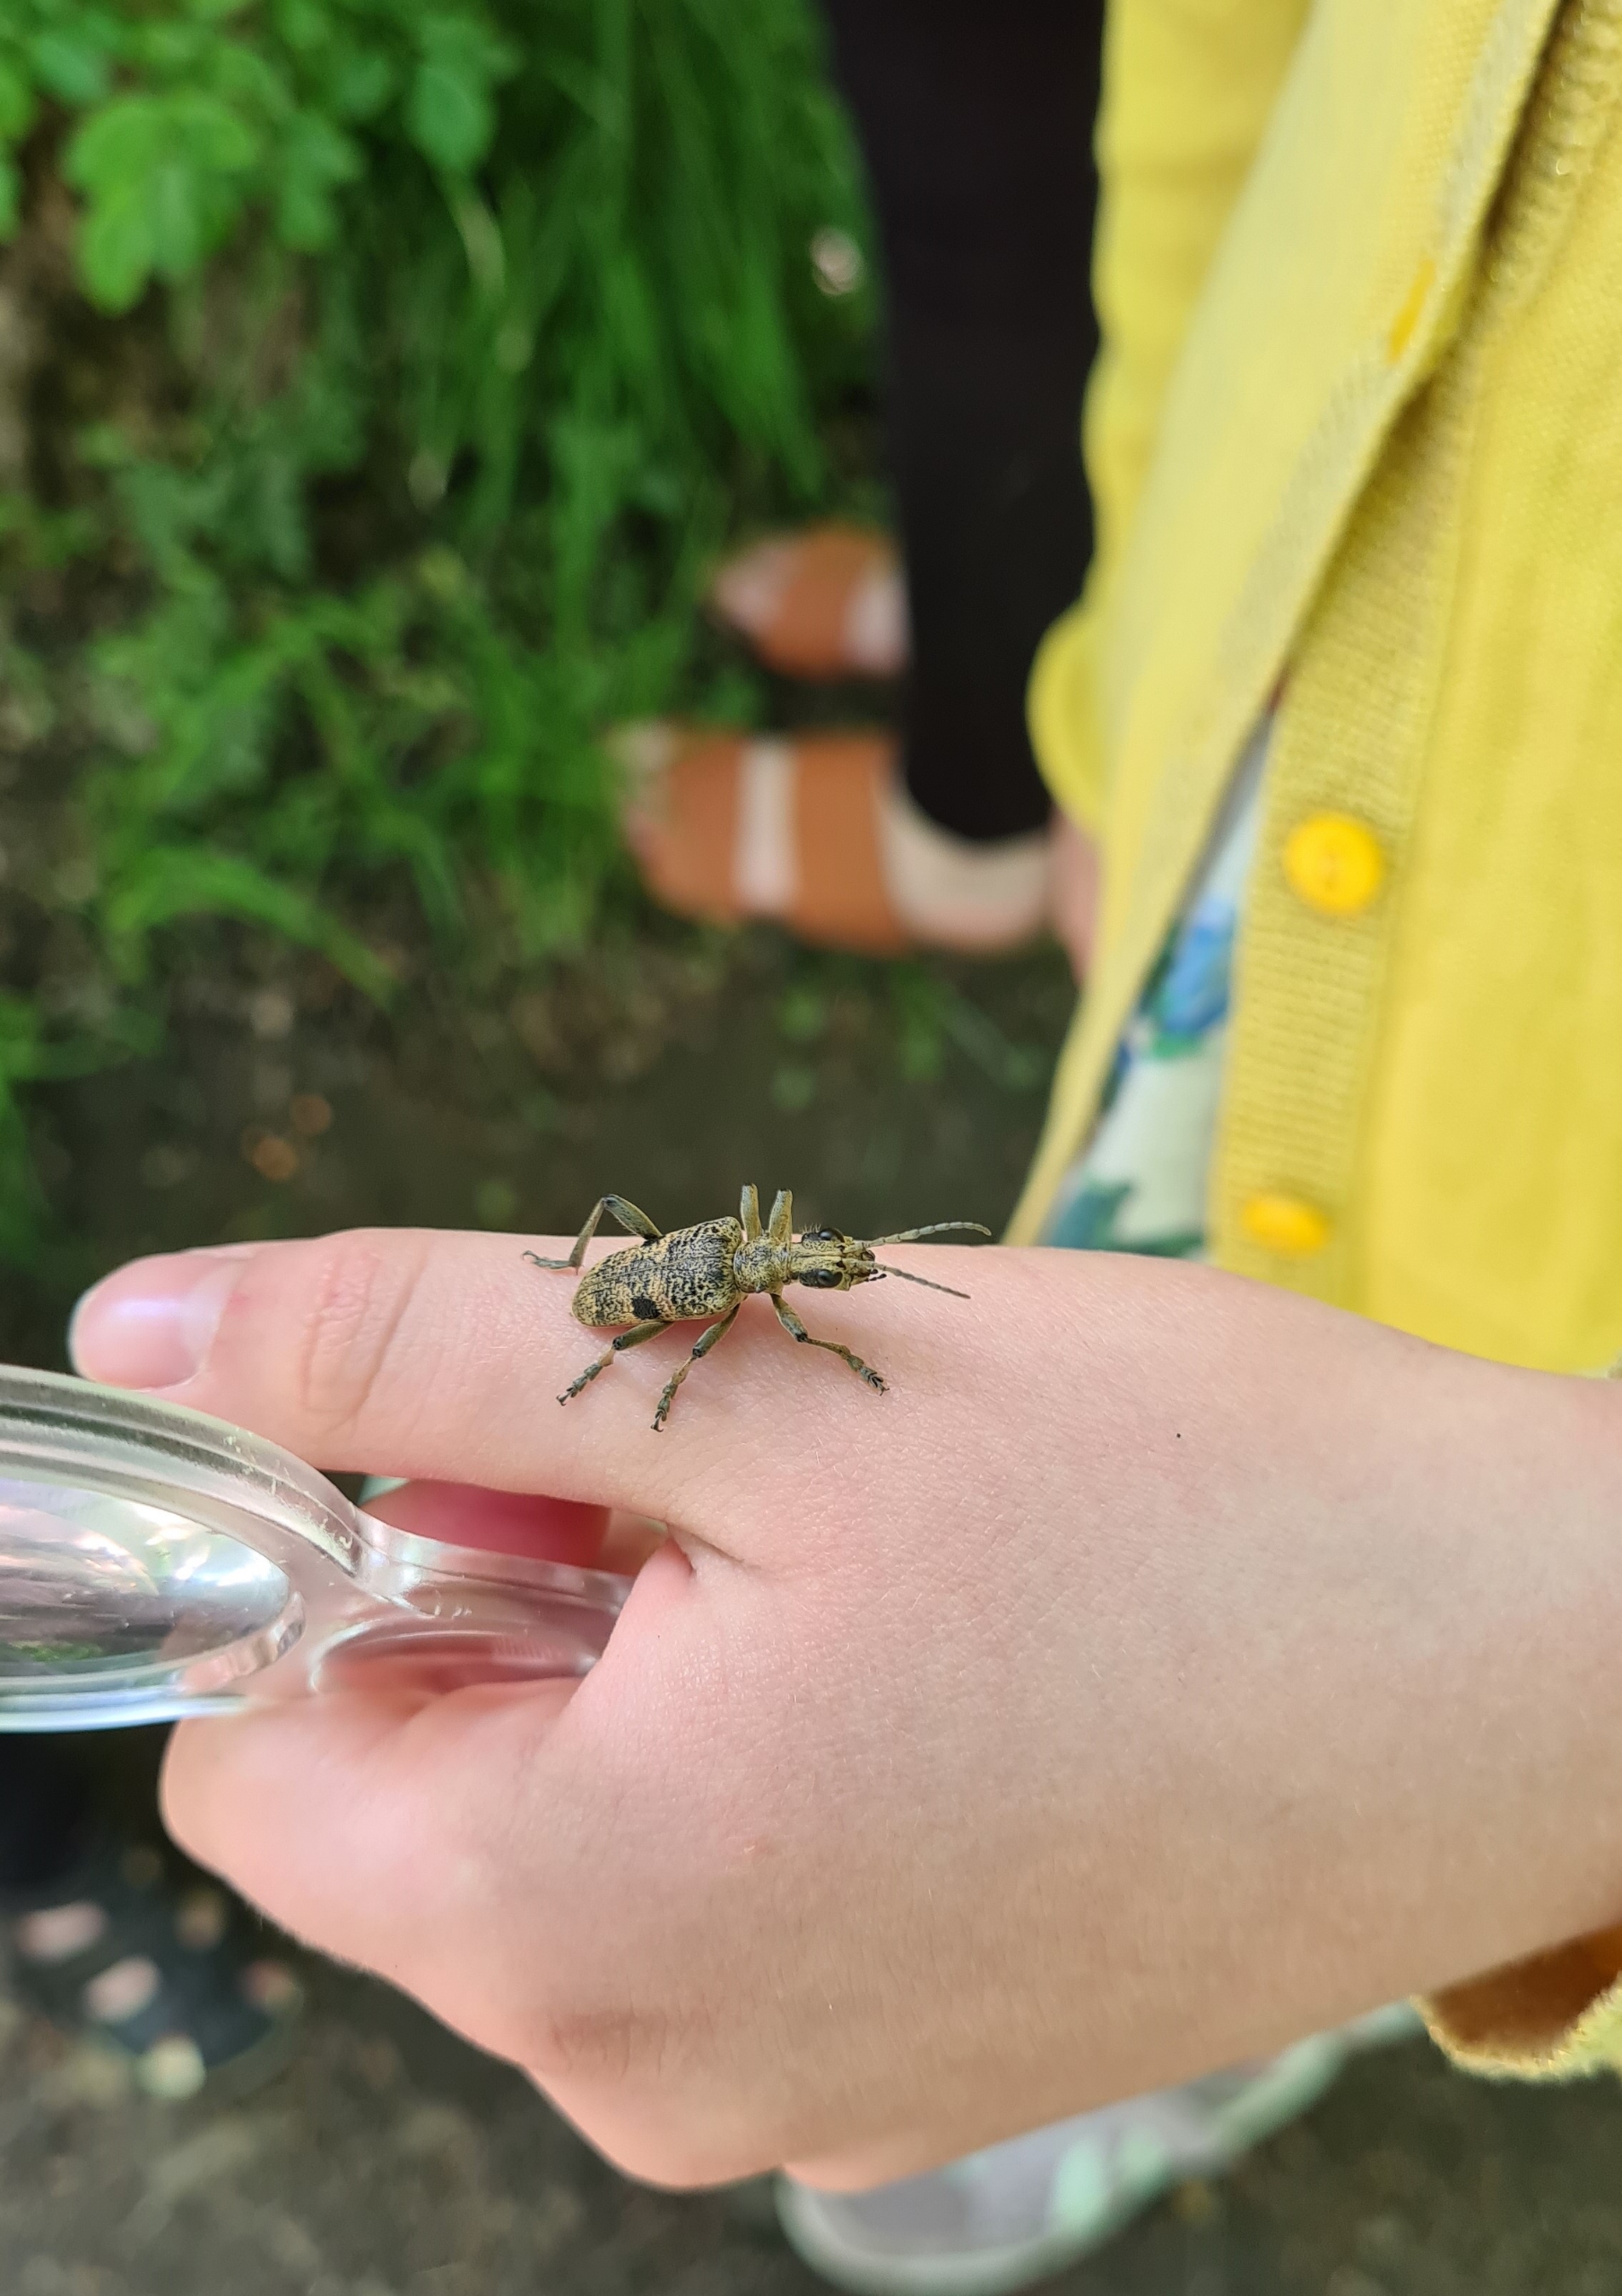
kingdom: Animalia
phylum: Arthropoda
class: Insecta
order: Coleoptera
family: Cerambycidae
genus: Rhagium
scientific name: Rhagium mordax
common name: Blankplettet tandbuk
